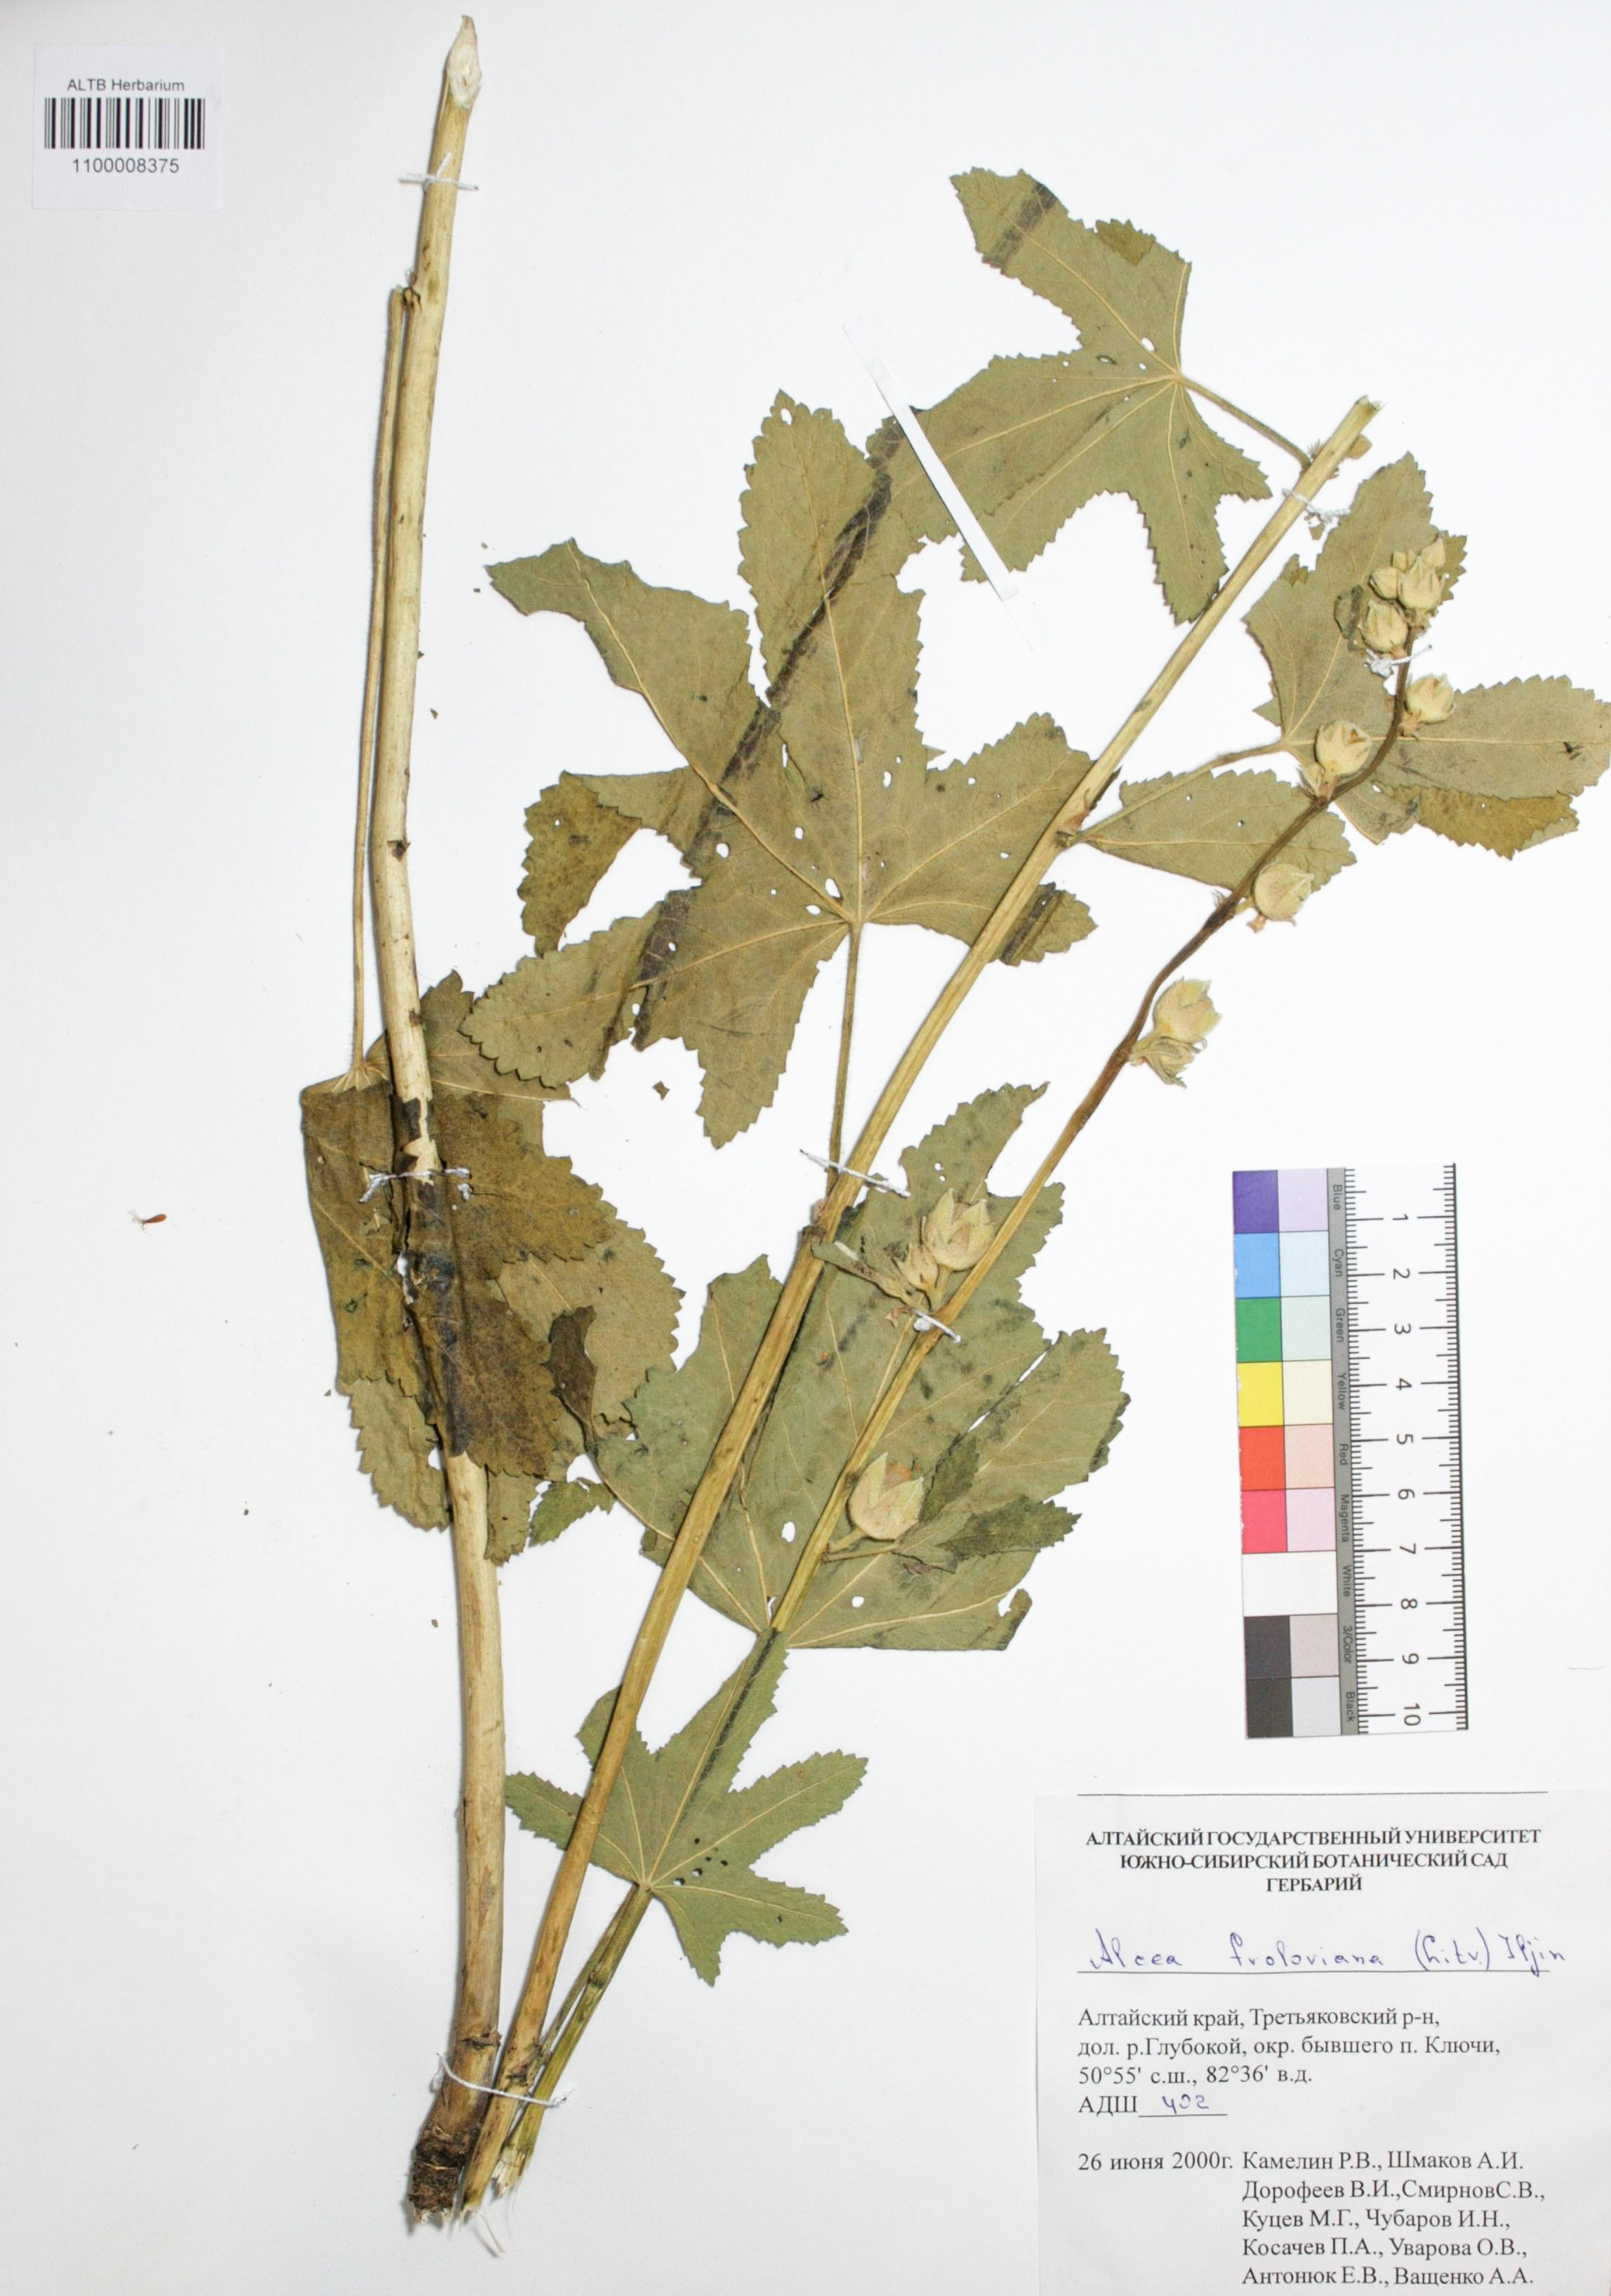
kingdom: Plantae
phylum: Tracheophyta
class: Magnoliopsida
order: Malvales
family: Malvaceae
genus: Alcea
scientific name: Alcea froloviana
